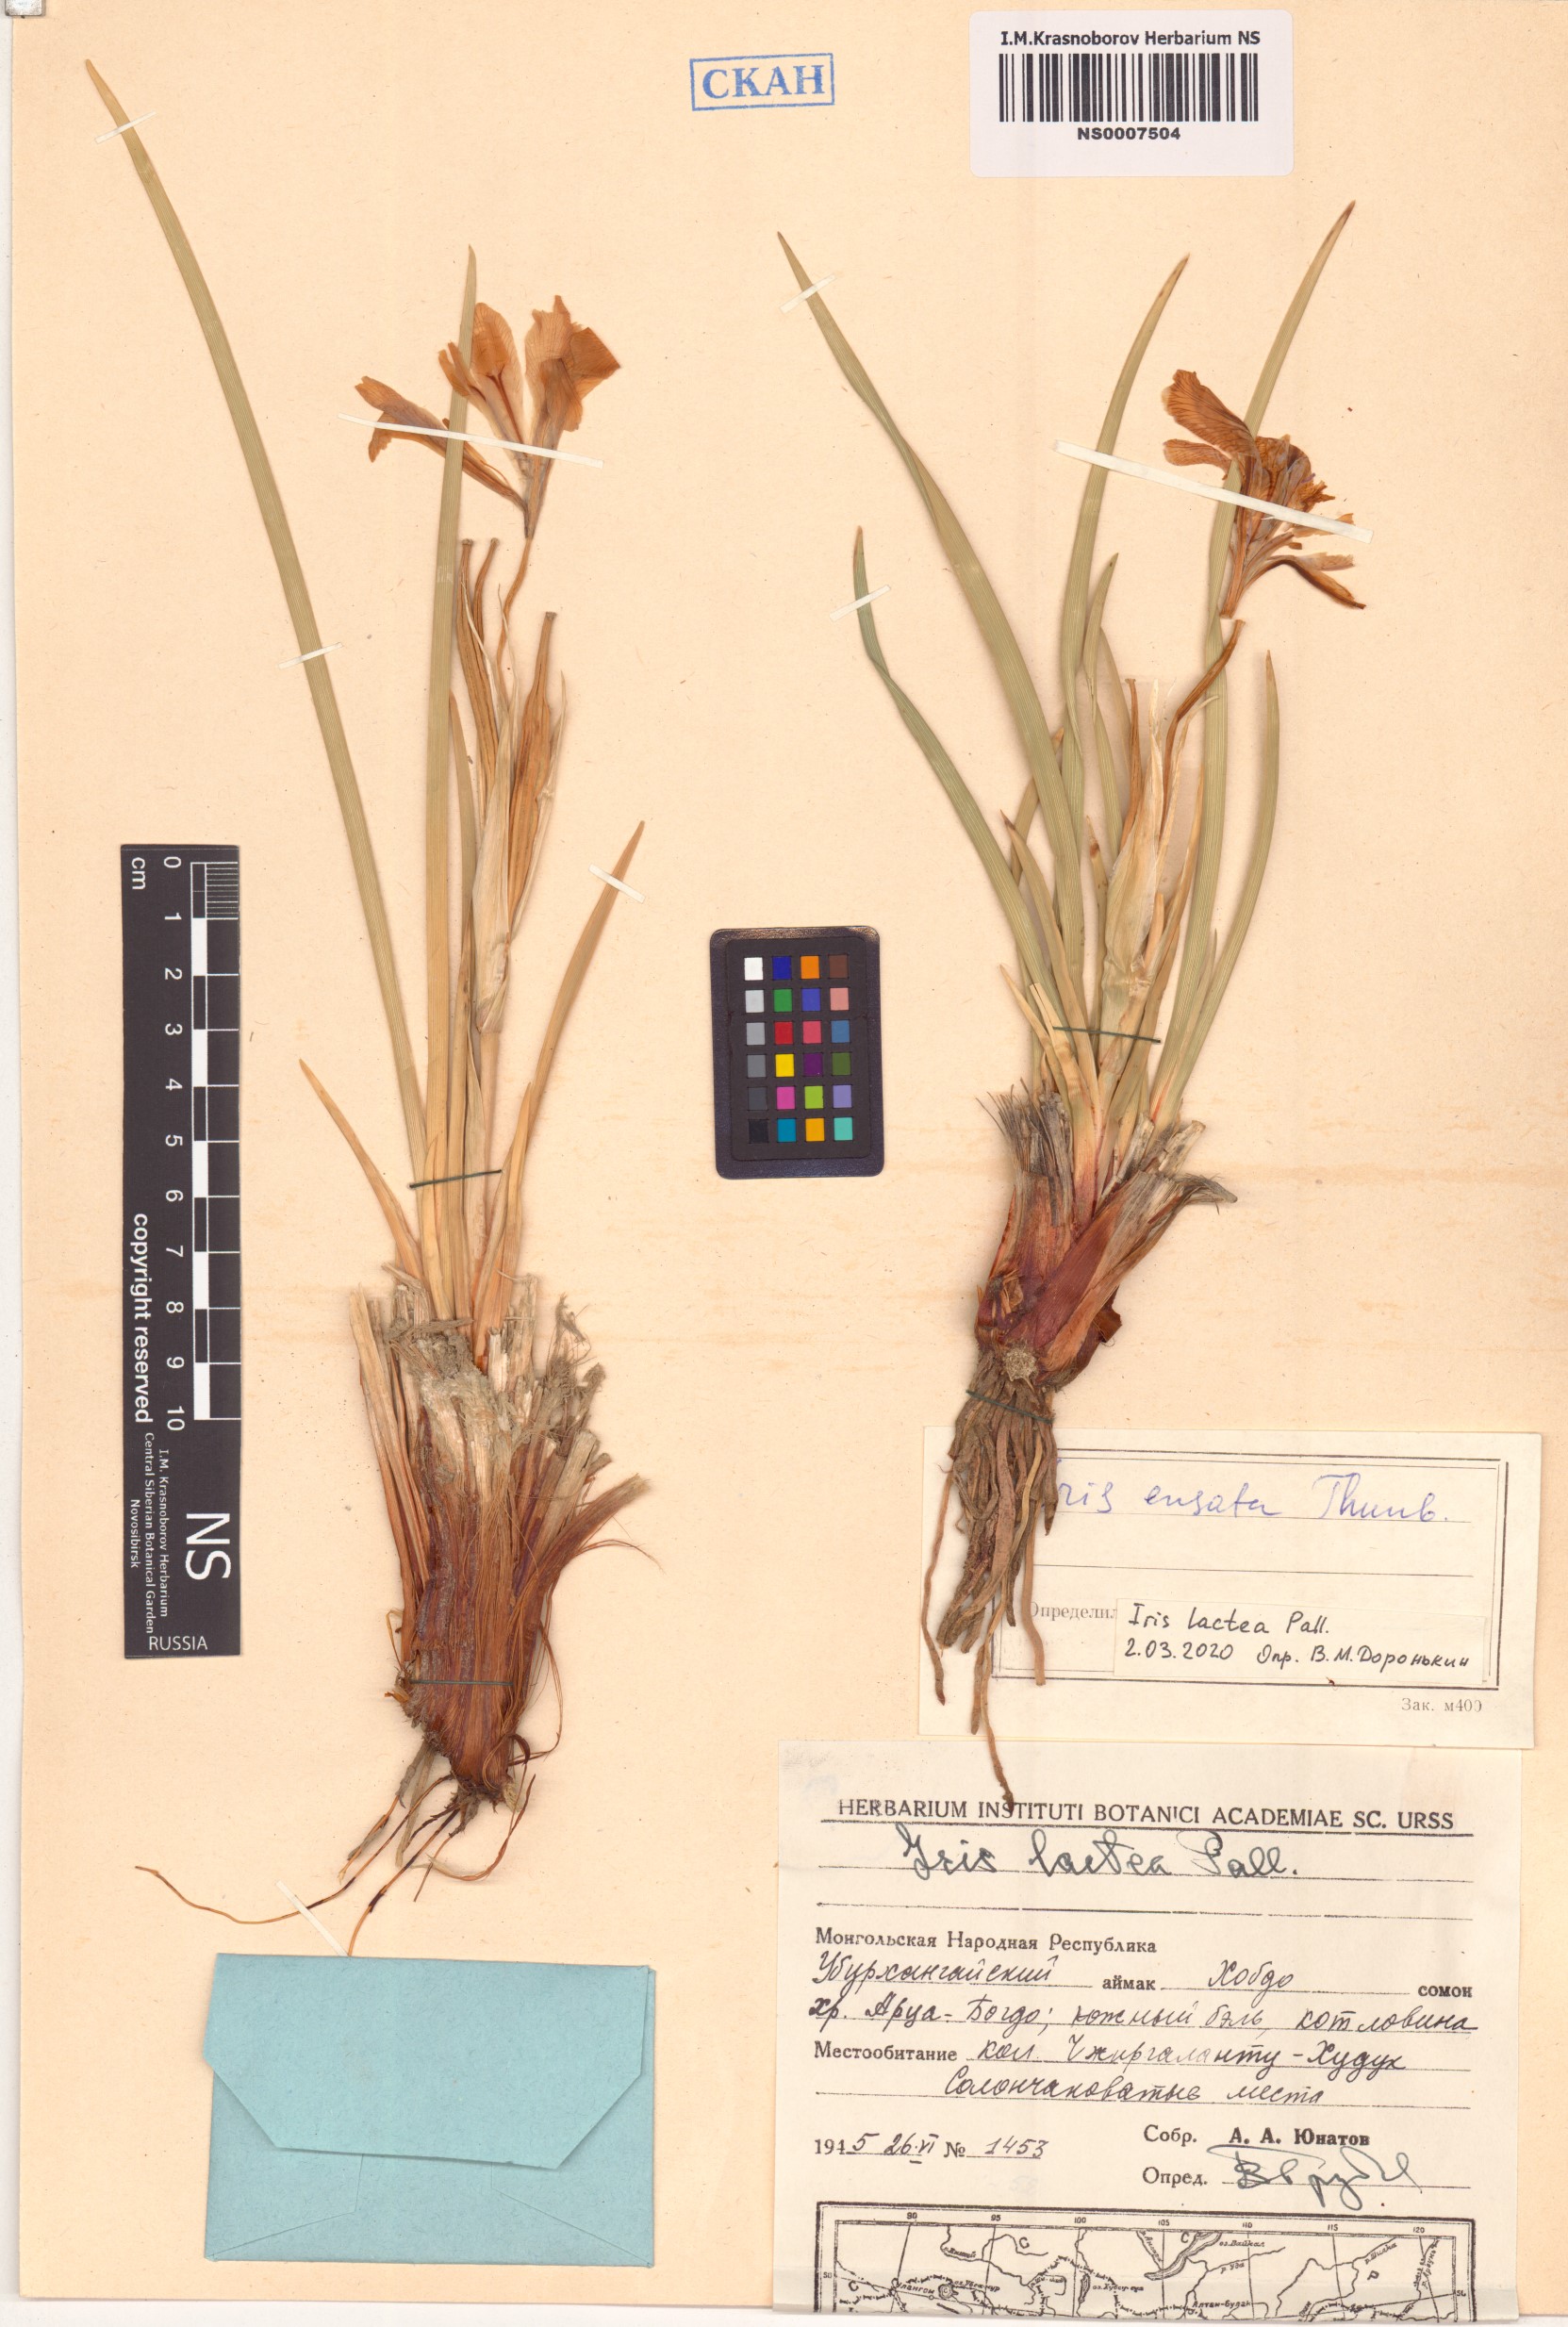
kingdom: Plantae
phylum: Tracheophyta
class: Liliopsida
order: Asparagales
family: Iridaceae
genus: Iris
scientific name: Iris lactea
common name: White-flower chinese iris
